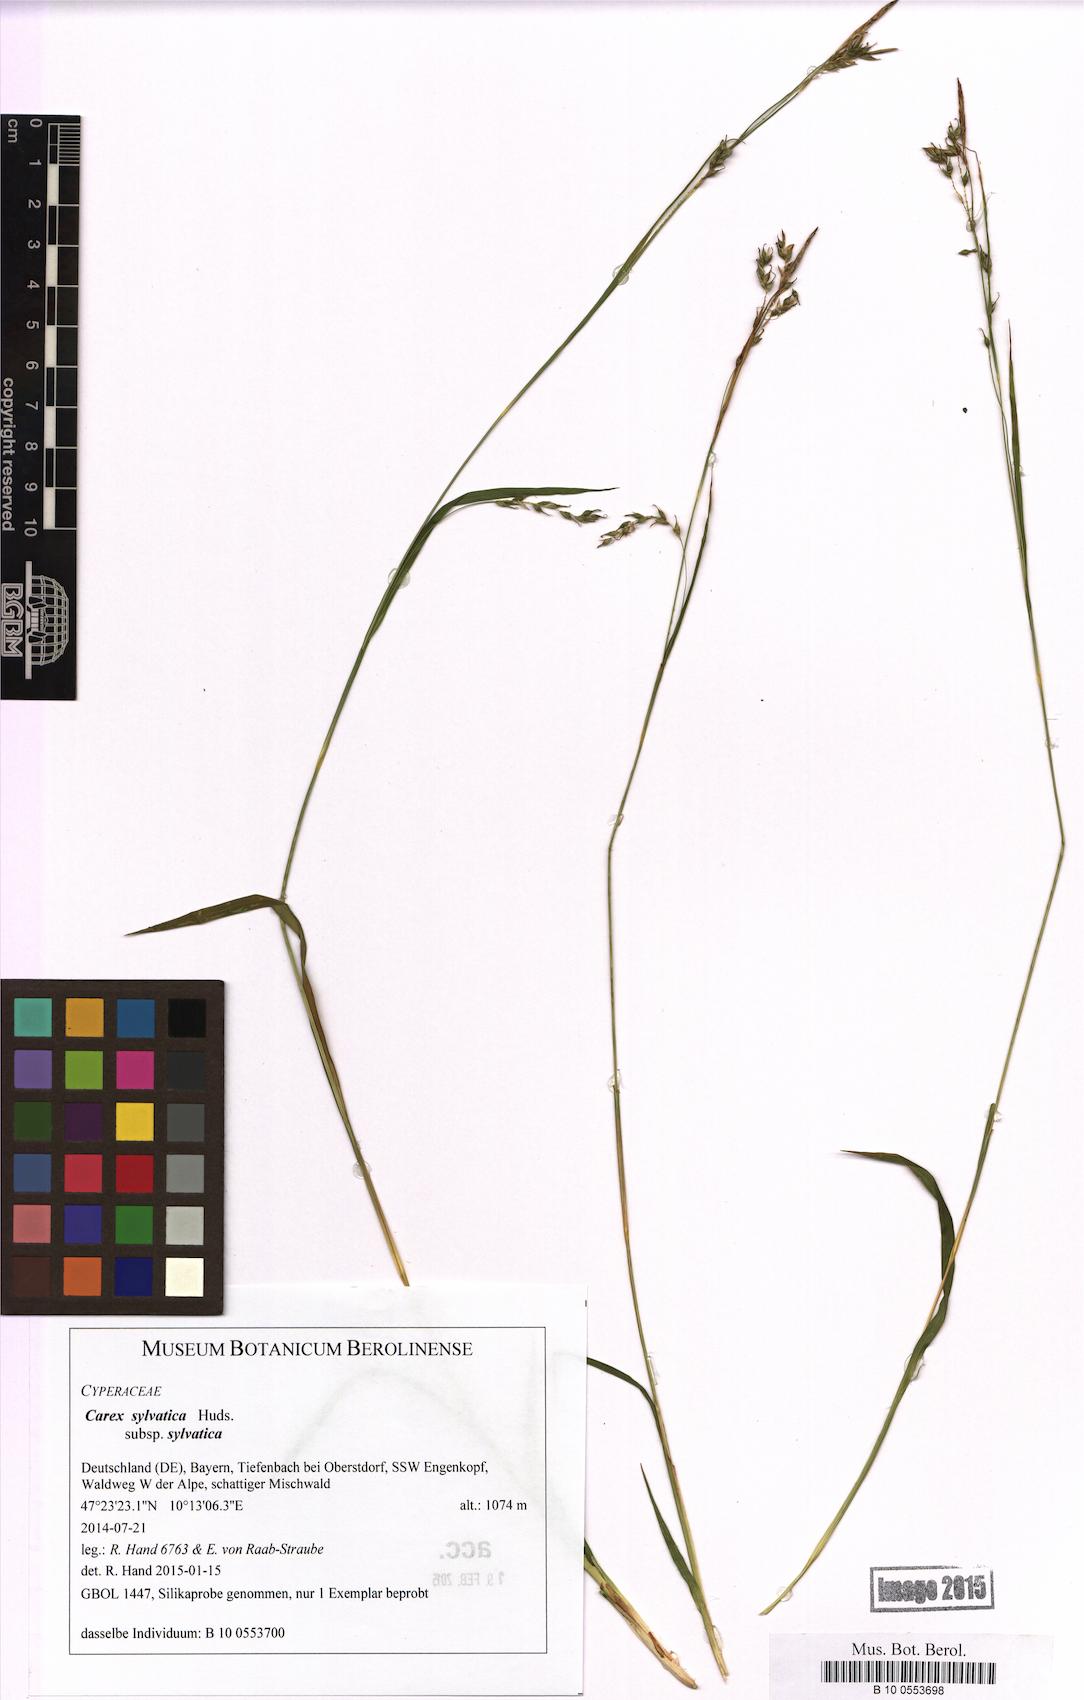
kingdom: Plantae
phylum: Tracheophyta
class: Liliopsida
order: Poales
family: Cyperaceae
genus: Carex
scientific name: Carex sylvatica
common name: Wood-sedge
